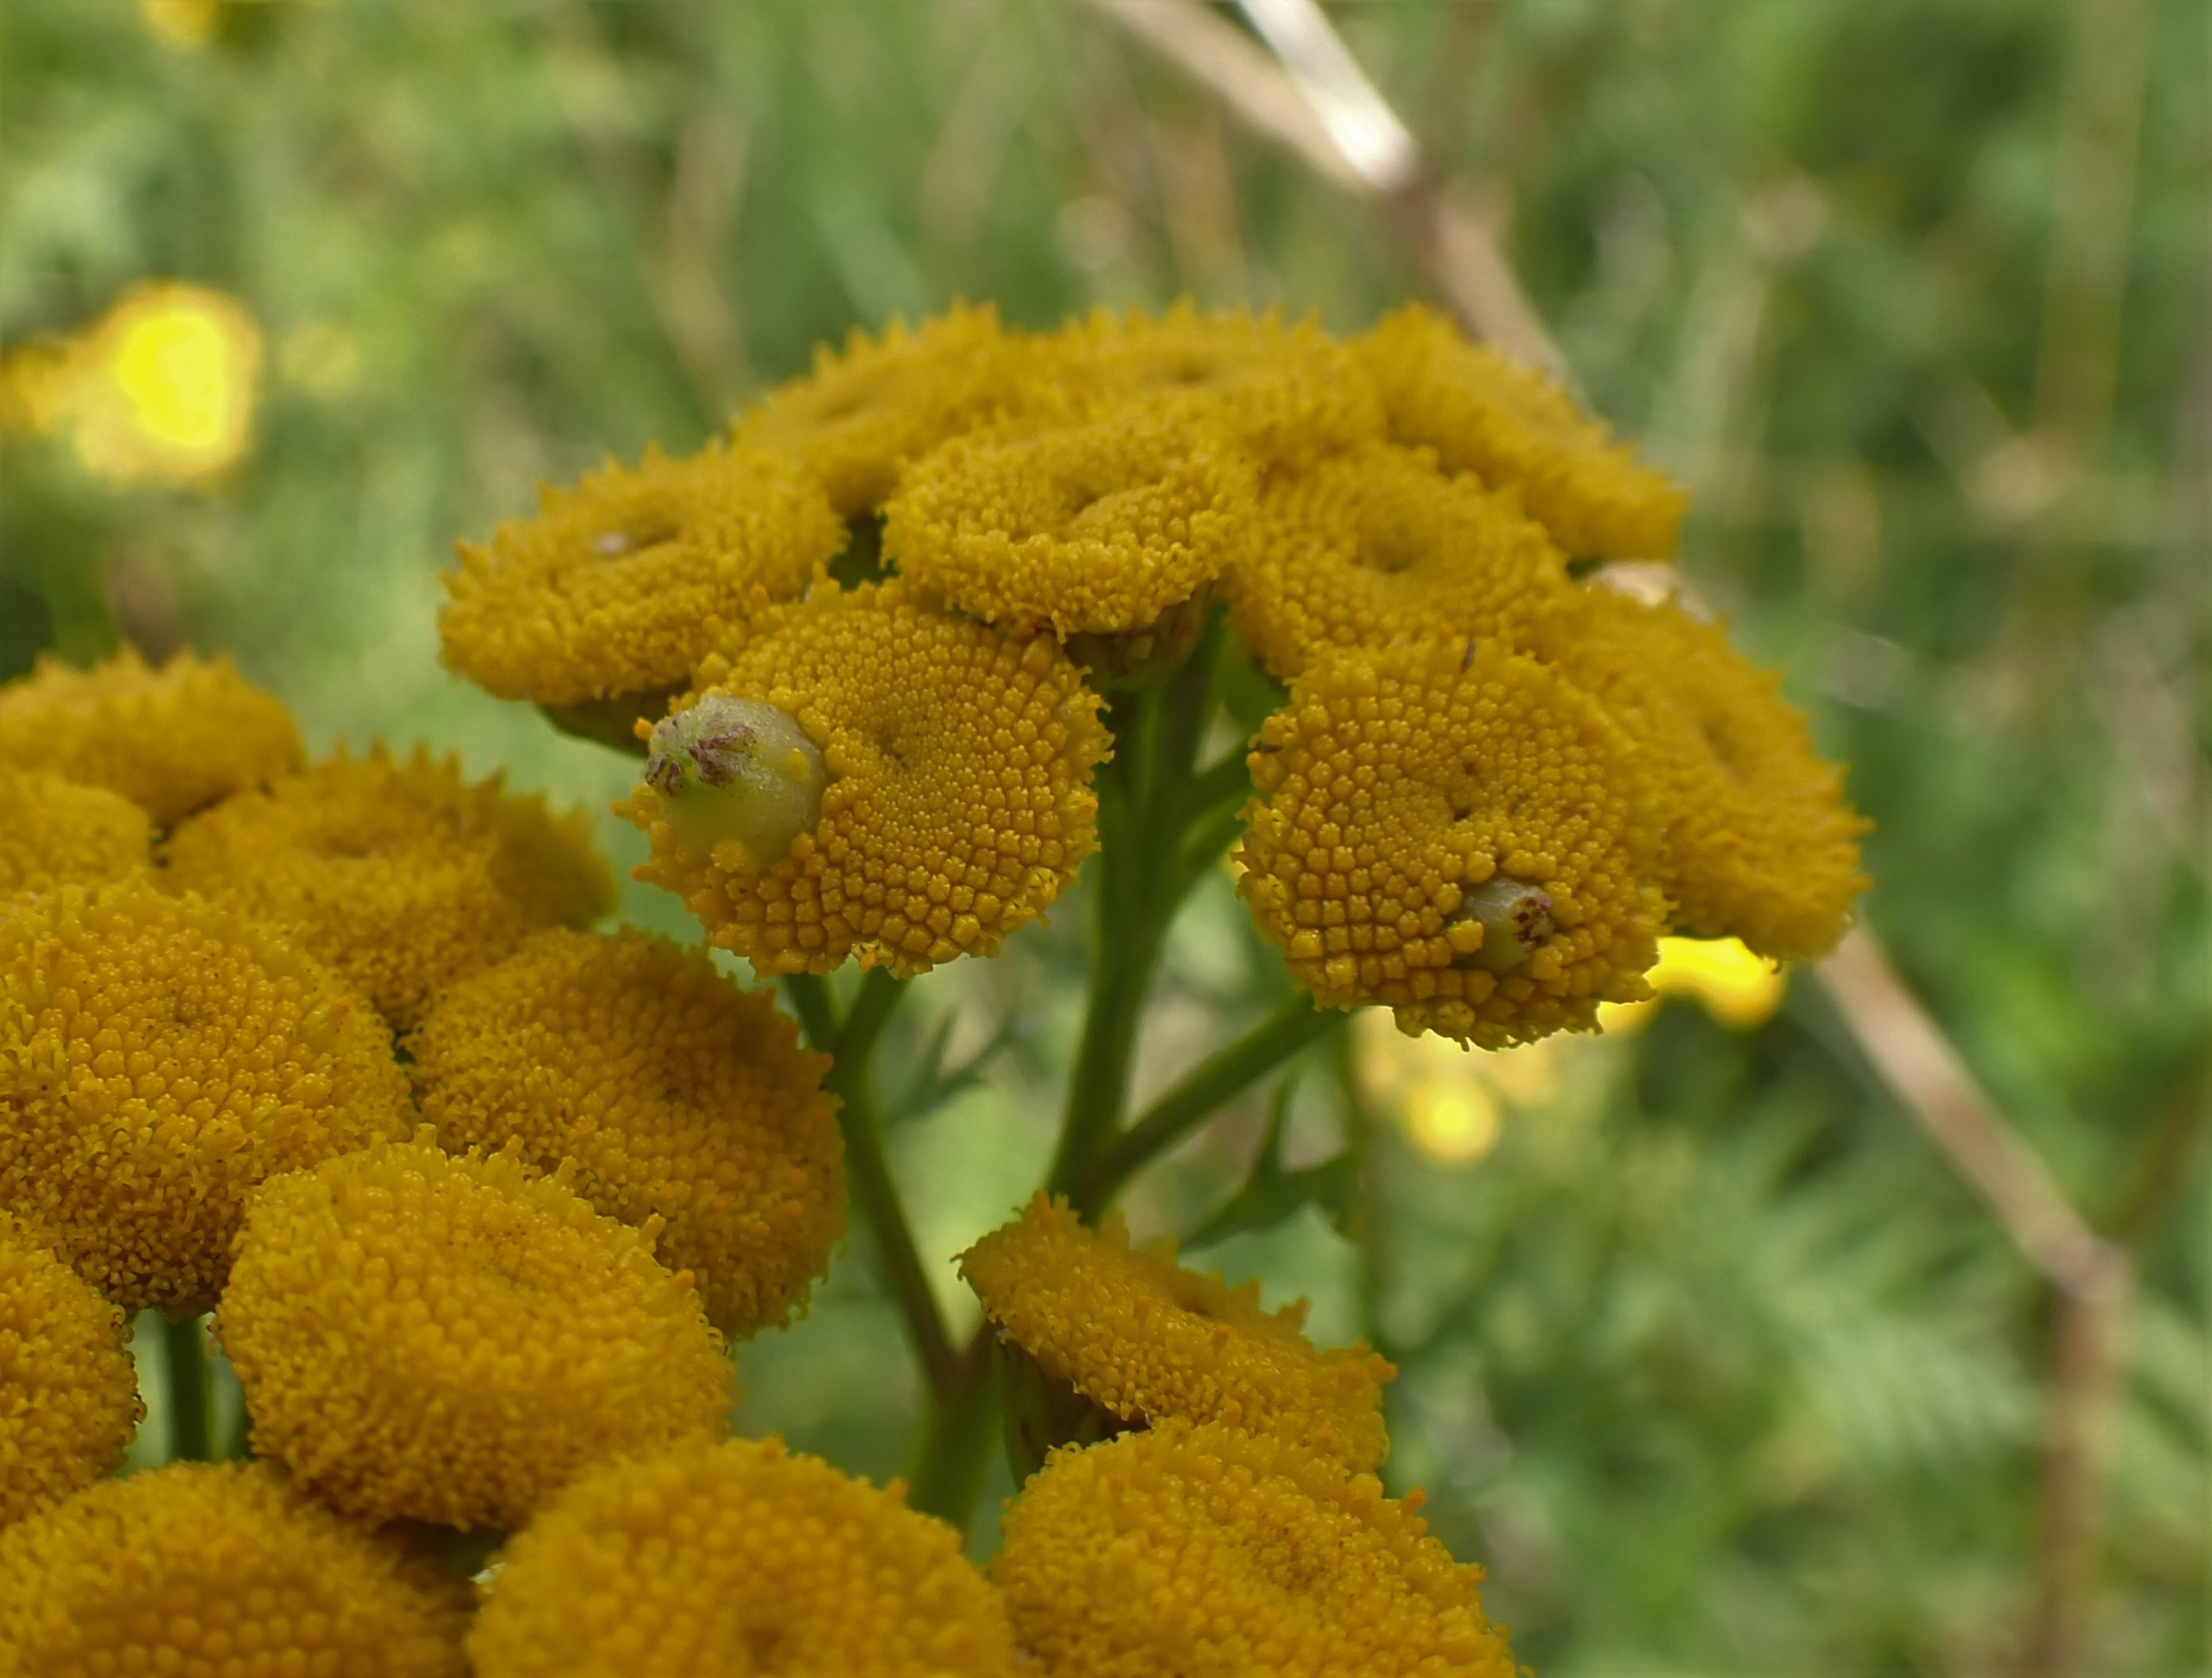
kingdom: Animalia
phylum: Arthropoda
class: Insecta
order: Diptera
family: Cecidomyiidae
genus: Rhopalomyia
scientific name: Rhopalomyia tanaceticolus
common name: Rejnfangalmyg
